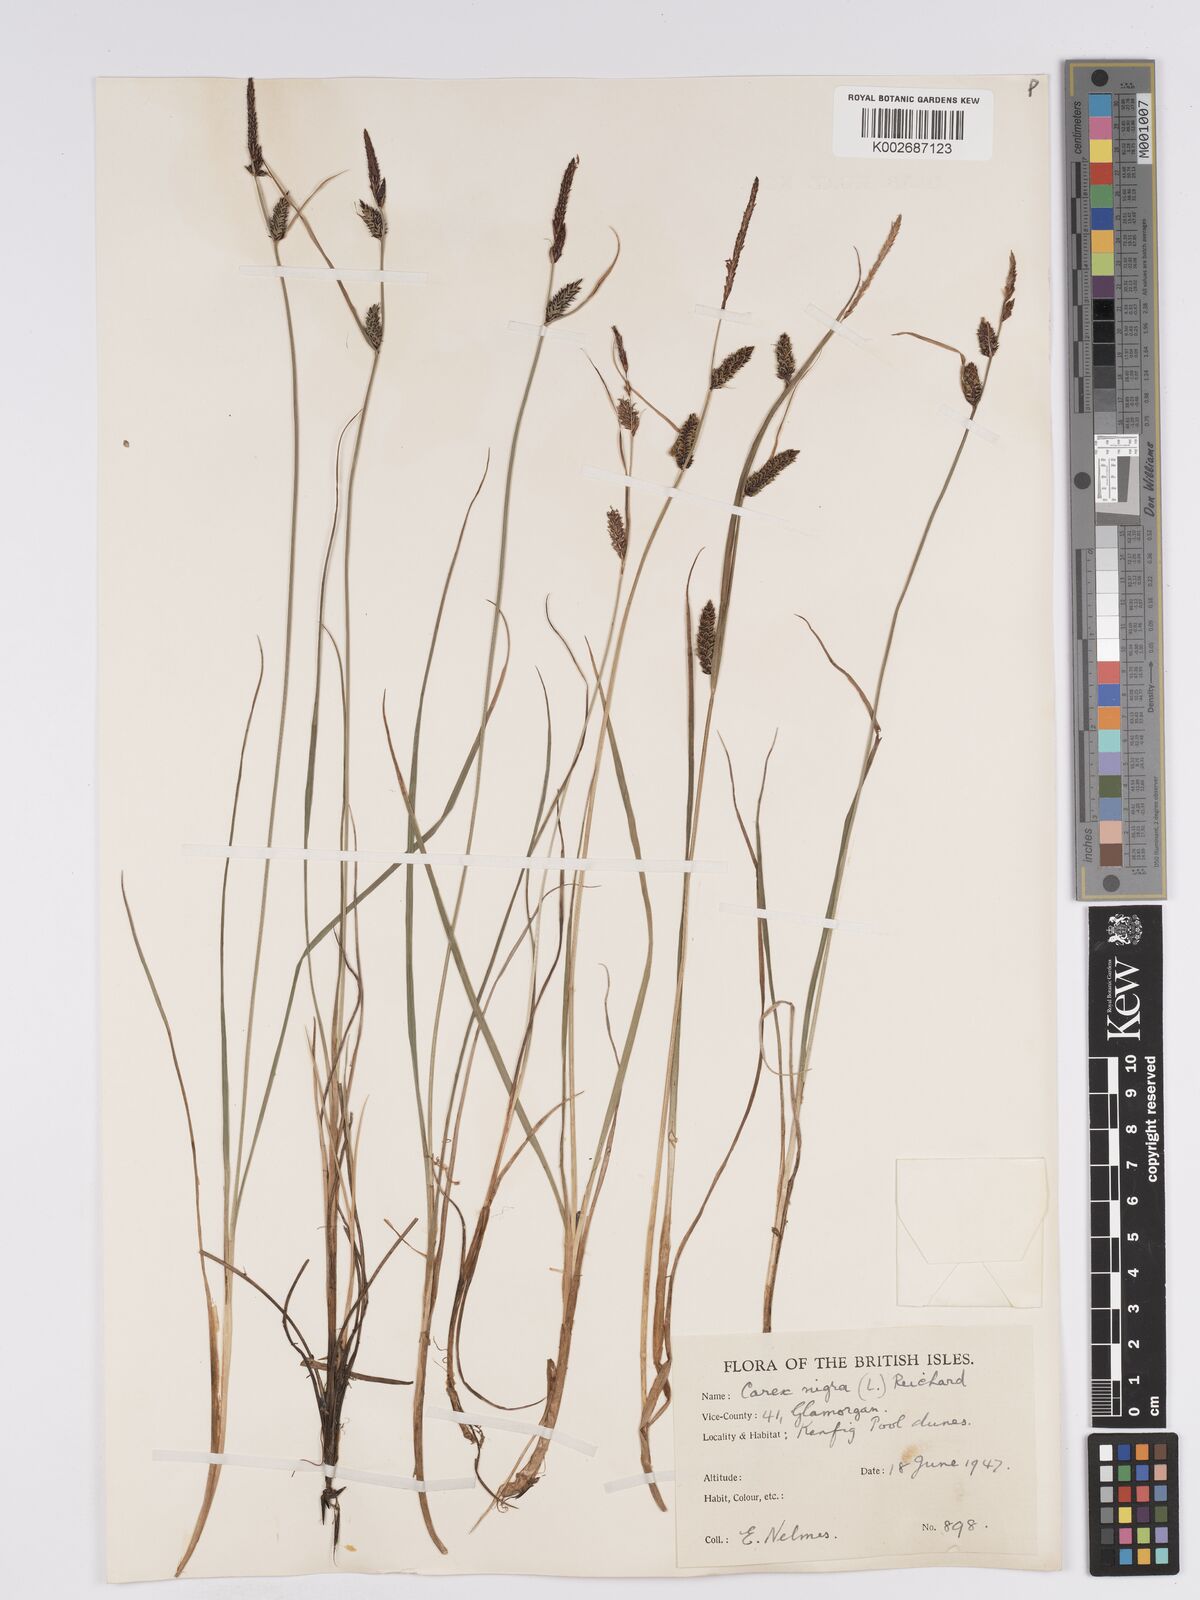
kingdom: Plantae
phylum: Tracheophyta
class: Liliopsida
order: Poales
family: Cyperaceae
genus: Carex
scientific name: Carex nigra
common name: Common sedge
